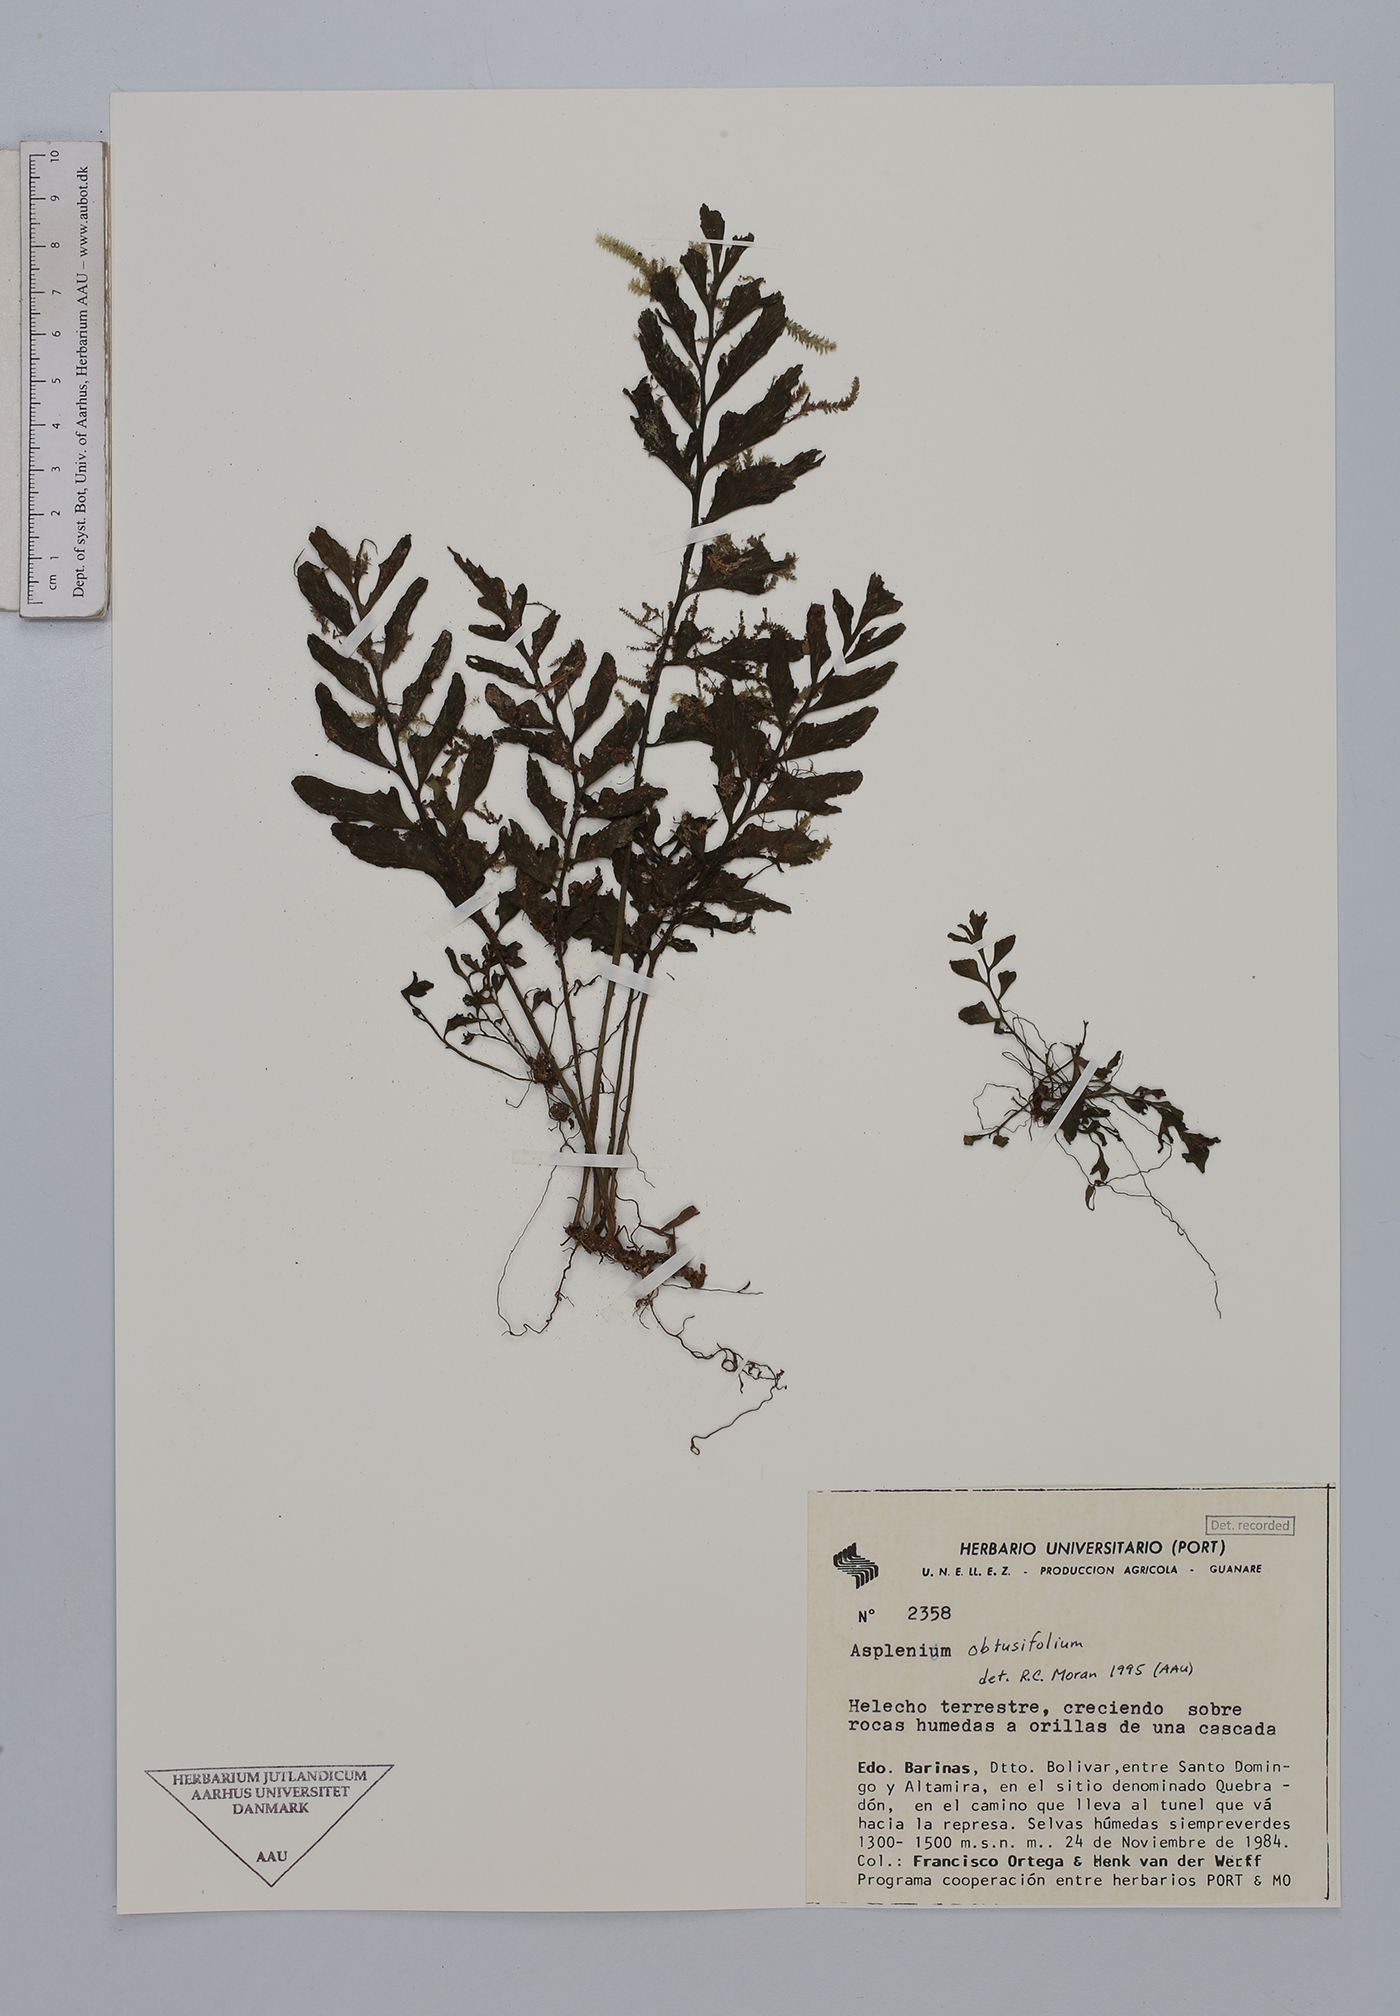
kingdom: Plantae
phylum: Tracheophyta
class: Polypodiopsida
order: Polypodiales
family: Aspleniaceae
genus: Hymenasplenium
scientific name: Hymenasplenium obtusifolium
